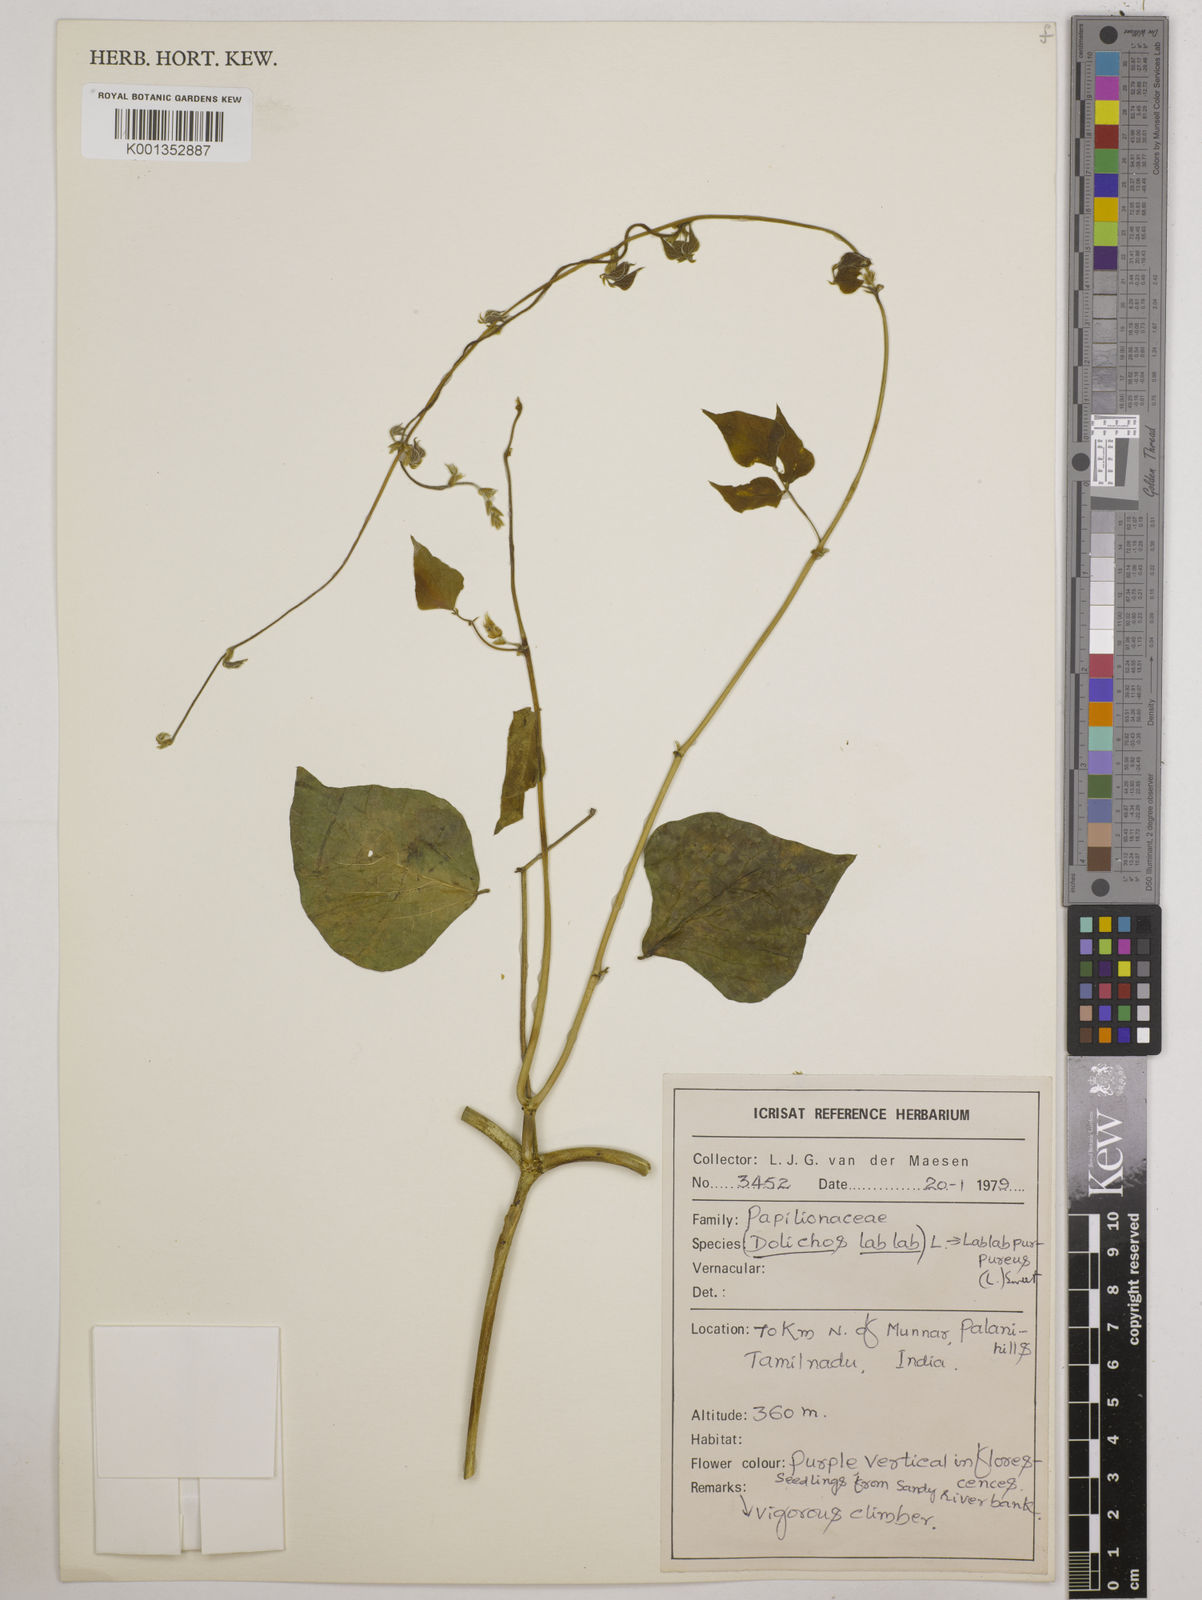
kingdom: Plantae
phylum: Tracheophyta
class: Magnoliopsida
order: Fabales
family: Fabaceae
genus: Lablab
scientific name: Lablab purpureus
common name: Lablab-bean
